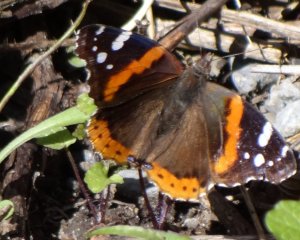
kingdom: Animalia
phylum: Arthropoda
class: Insecta
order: Lepidoptera
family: Nymphalidae
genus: Vanessa
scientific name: Vanessa atalanta
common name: Red Admiral
